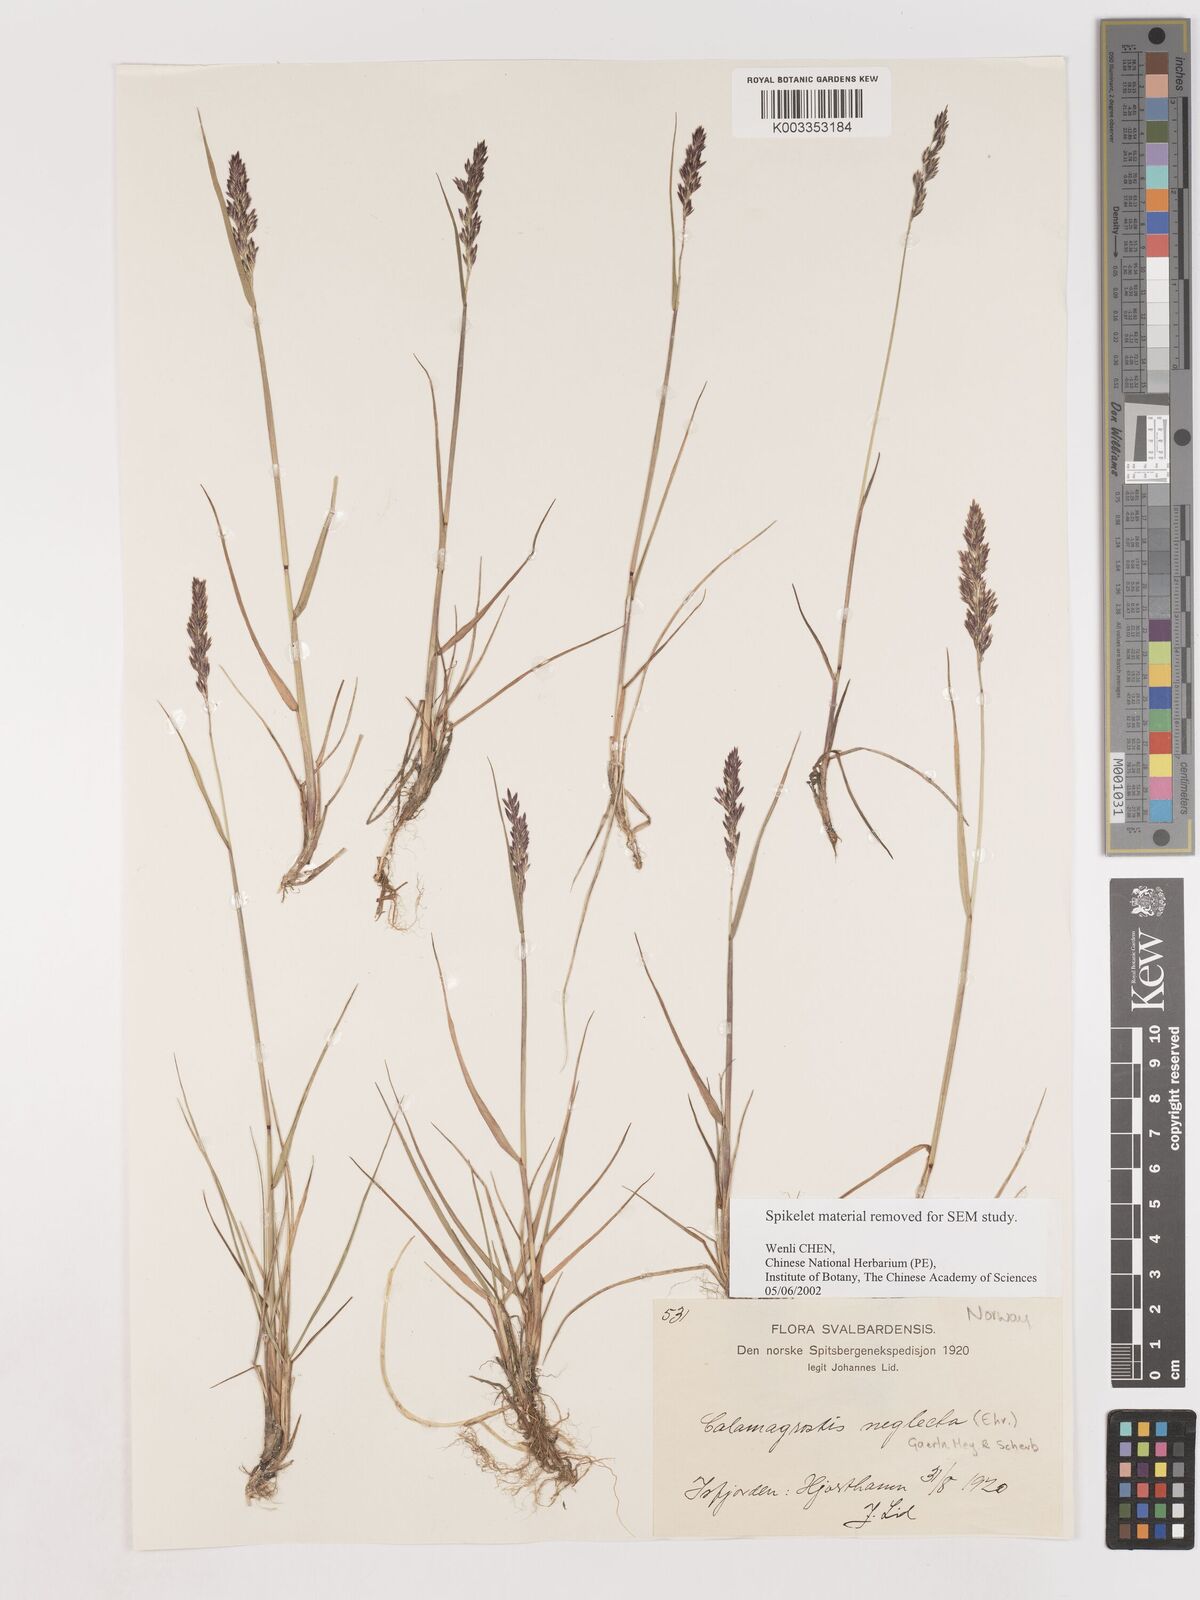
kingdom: Plantae
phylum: Tracheophyta
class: Liliopsida
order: Poales
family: Poaceae
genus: Cinnagrostis
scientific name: Cinnagrostis recta
